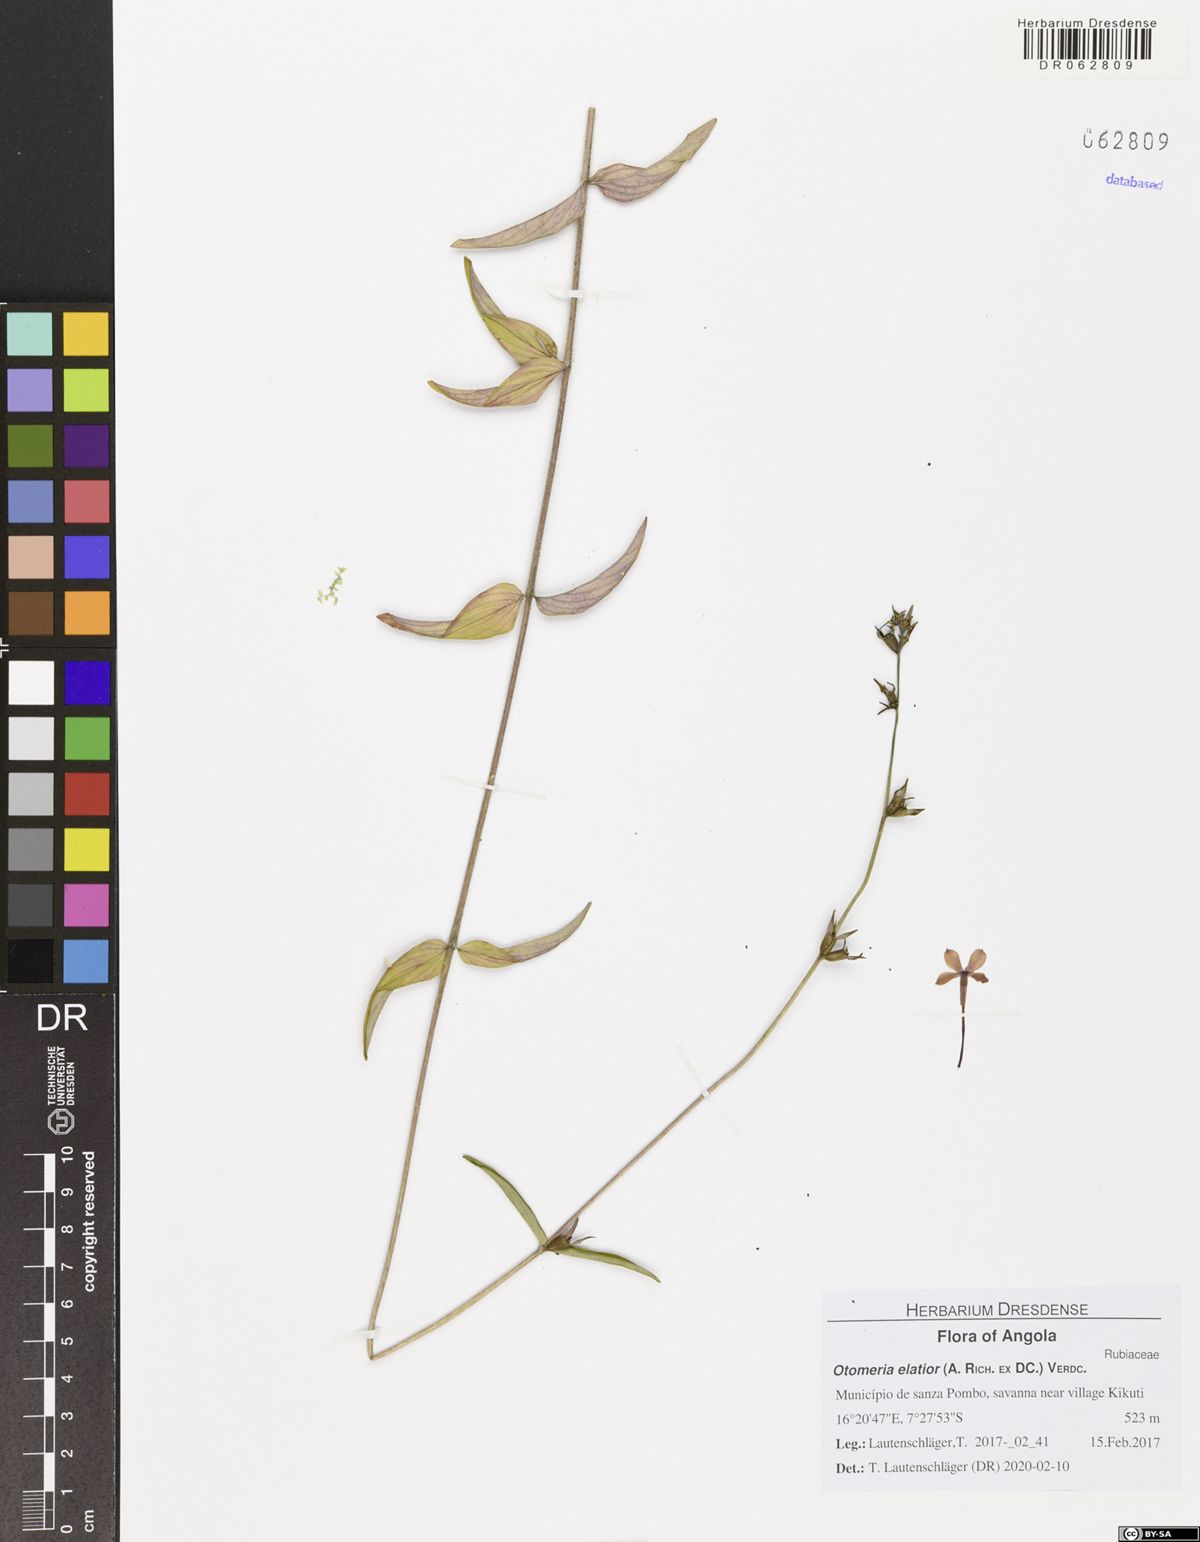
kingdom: Plantae
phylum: Tracheophyta
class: Magnoliopsida
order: Gentianales
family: Rubiaceae
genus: Otomeria
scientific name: Otomeria elatior
